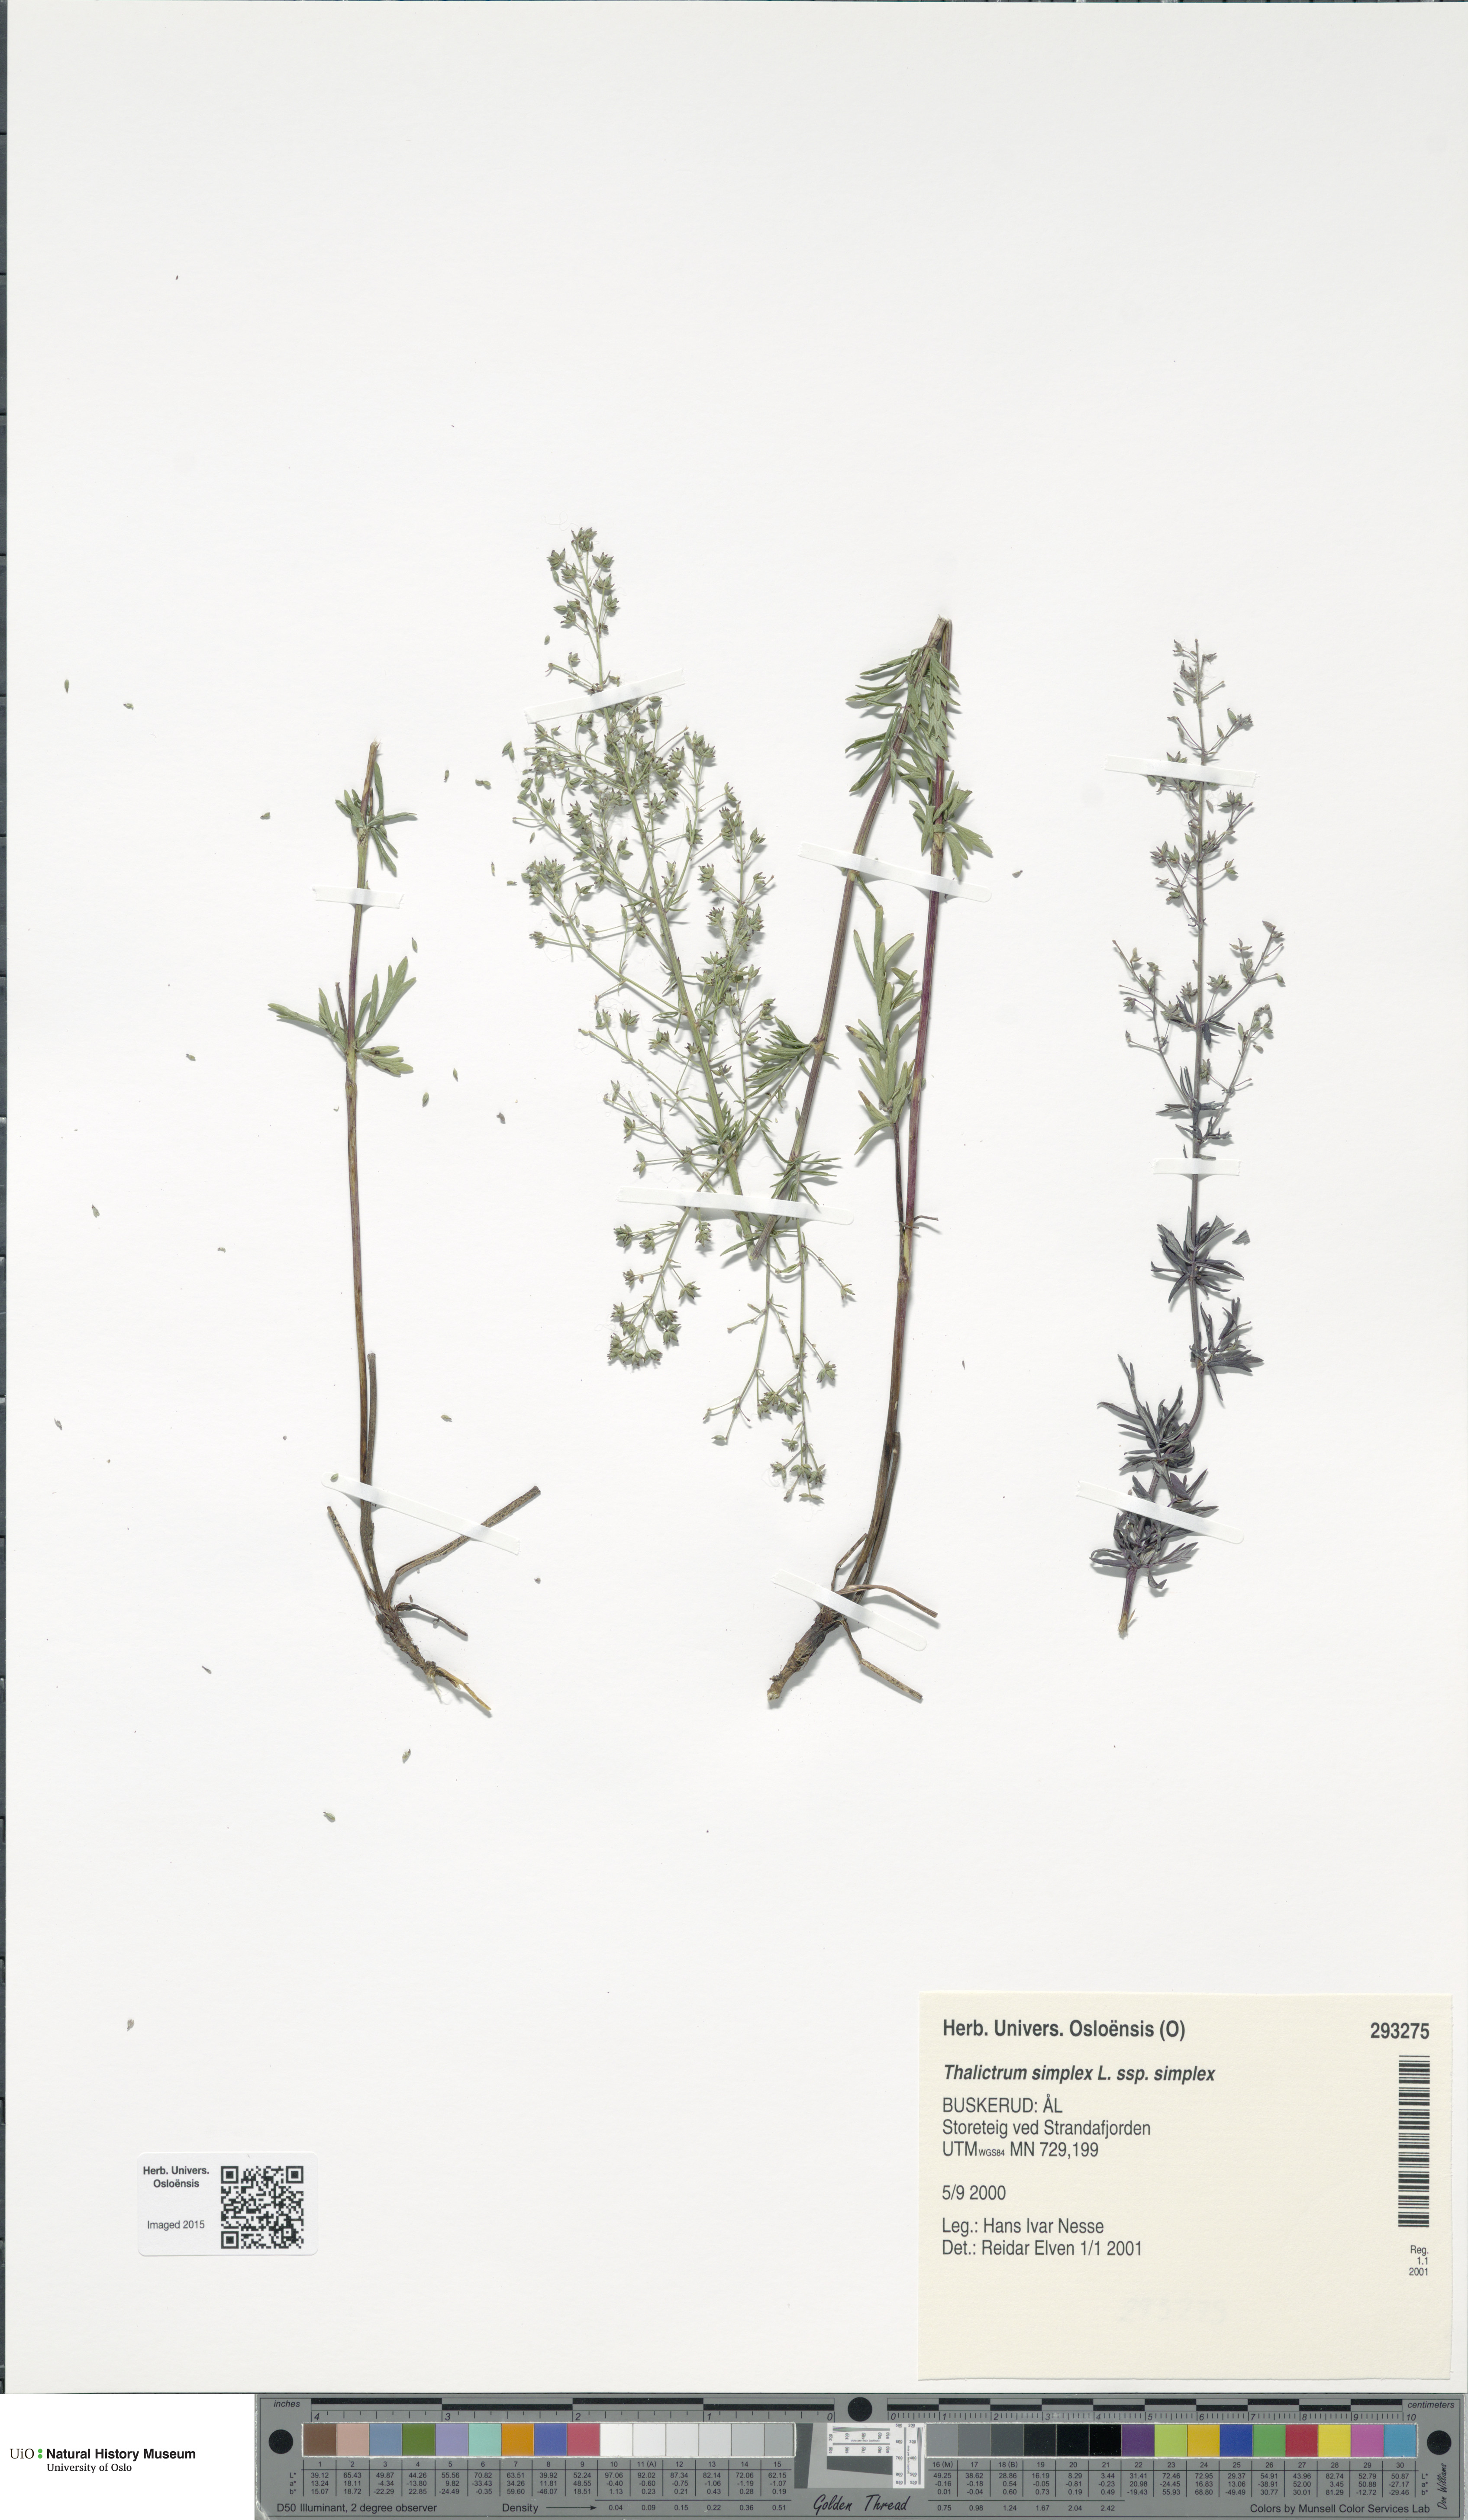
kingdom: Plantae
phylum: Tracheophyta
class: Magnoliopsida
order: Ranunculales
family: Ranunculaceae
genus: Thalictrum
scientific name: Thalictrum simplex
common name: Small meadow-rue
